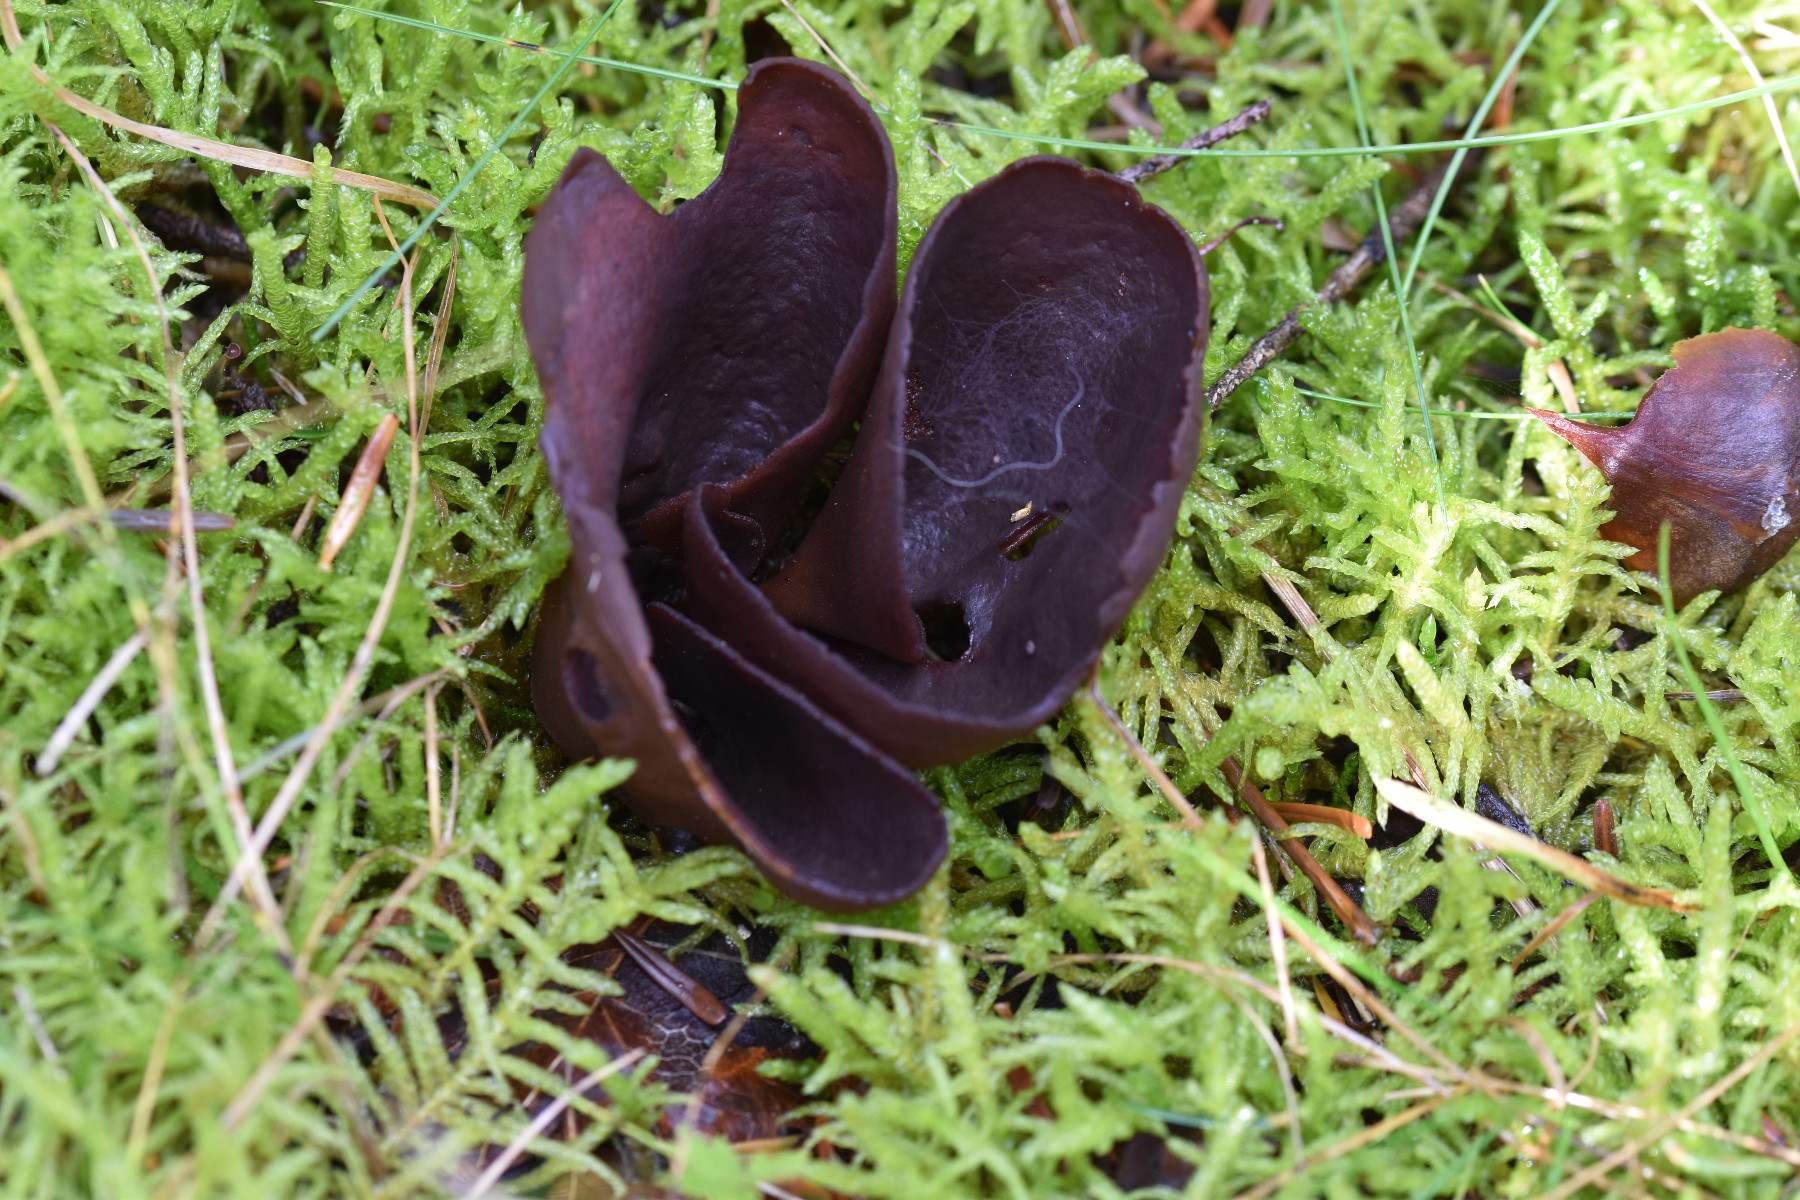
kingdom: Fungi
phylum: Ascomycota
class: Pezizomycetes
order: Pezizales
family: Otideaceae
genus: Otidea
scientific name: Otidea bufonia
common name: brun ørebæger
